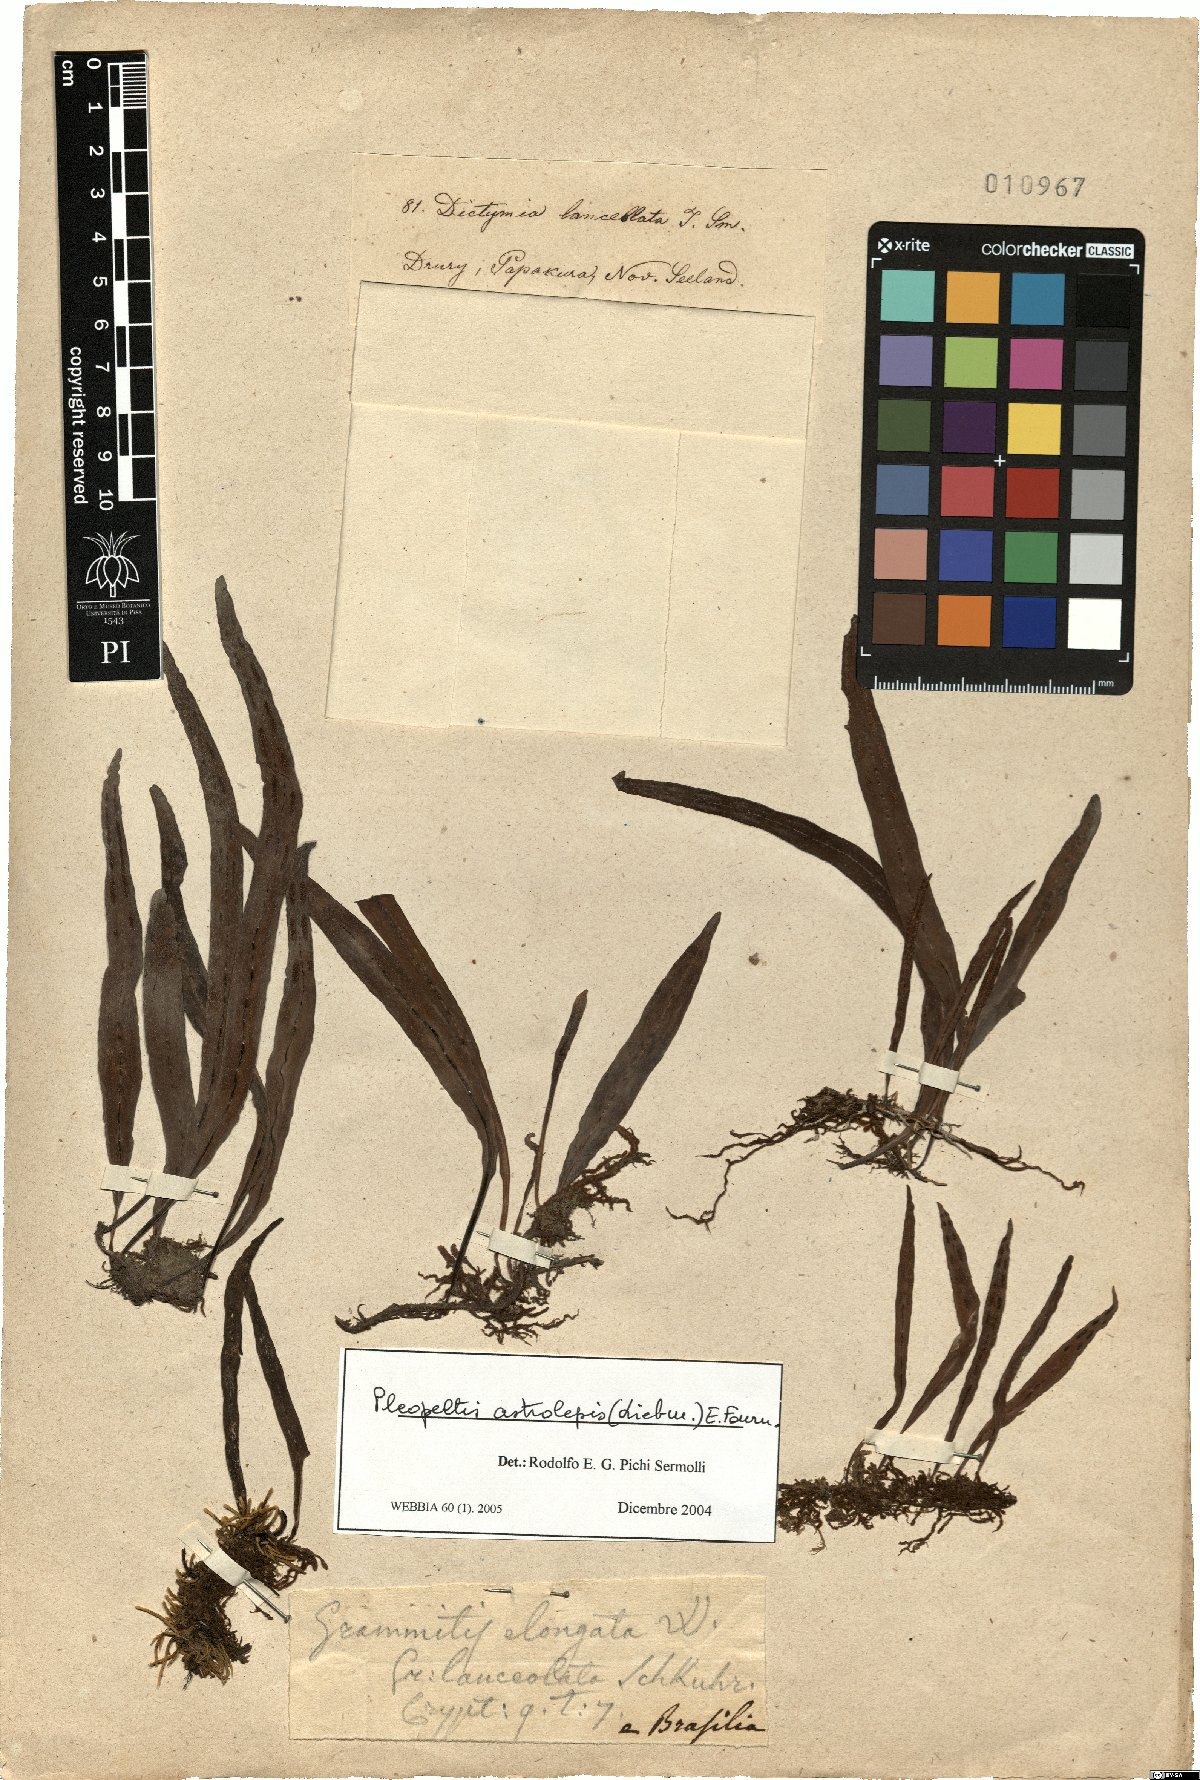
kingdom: Plantae
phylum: Tracheophyta
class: Polypodiopsida
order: Polypodiales
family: Polypodiaceae
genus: Pleopeltis
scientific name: Pleopeltis astrolepis
